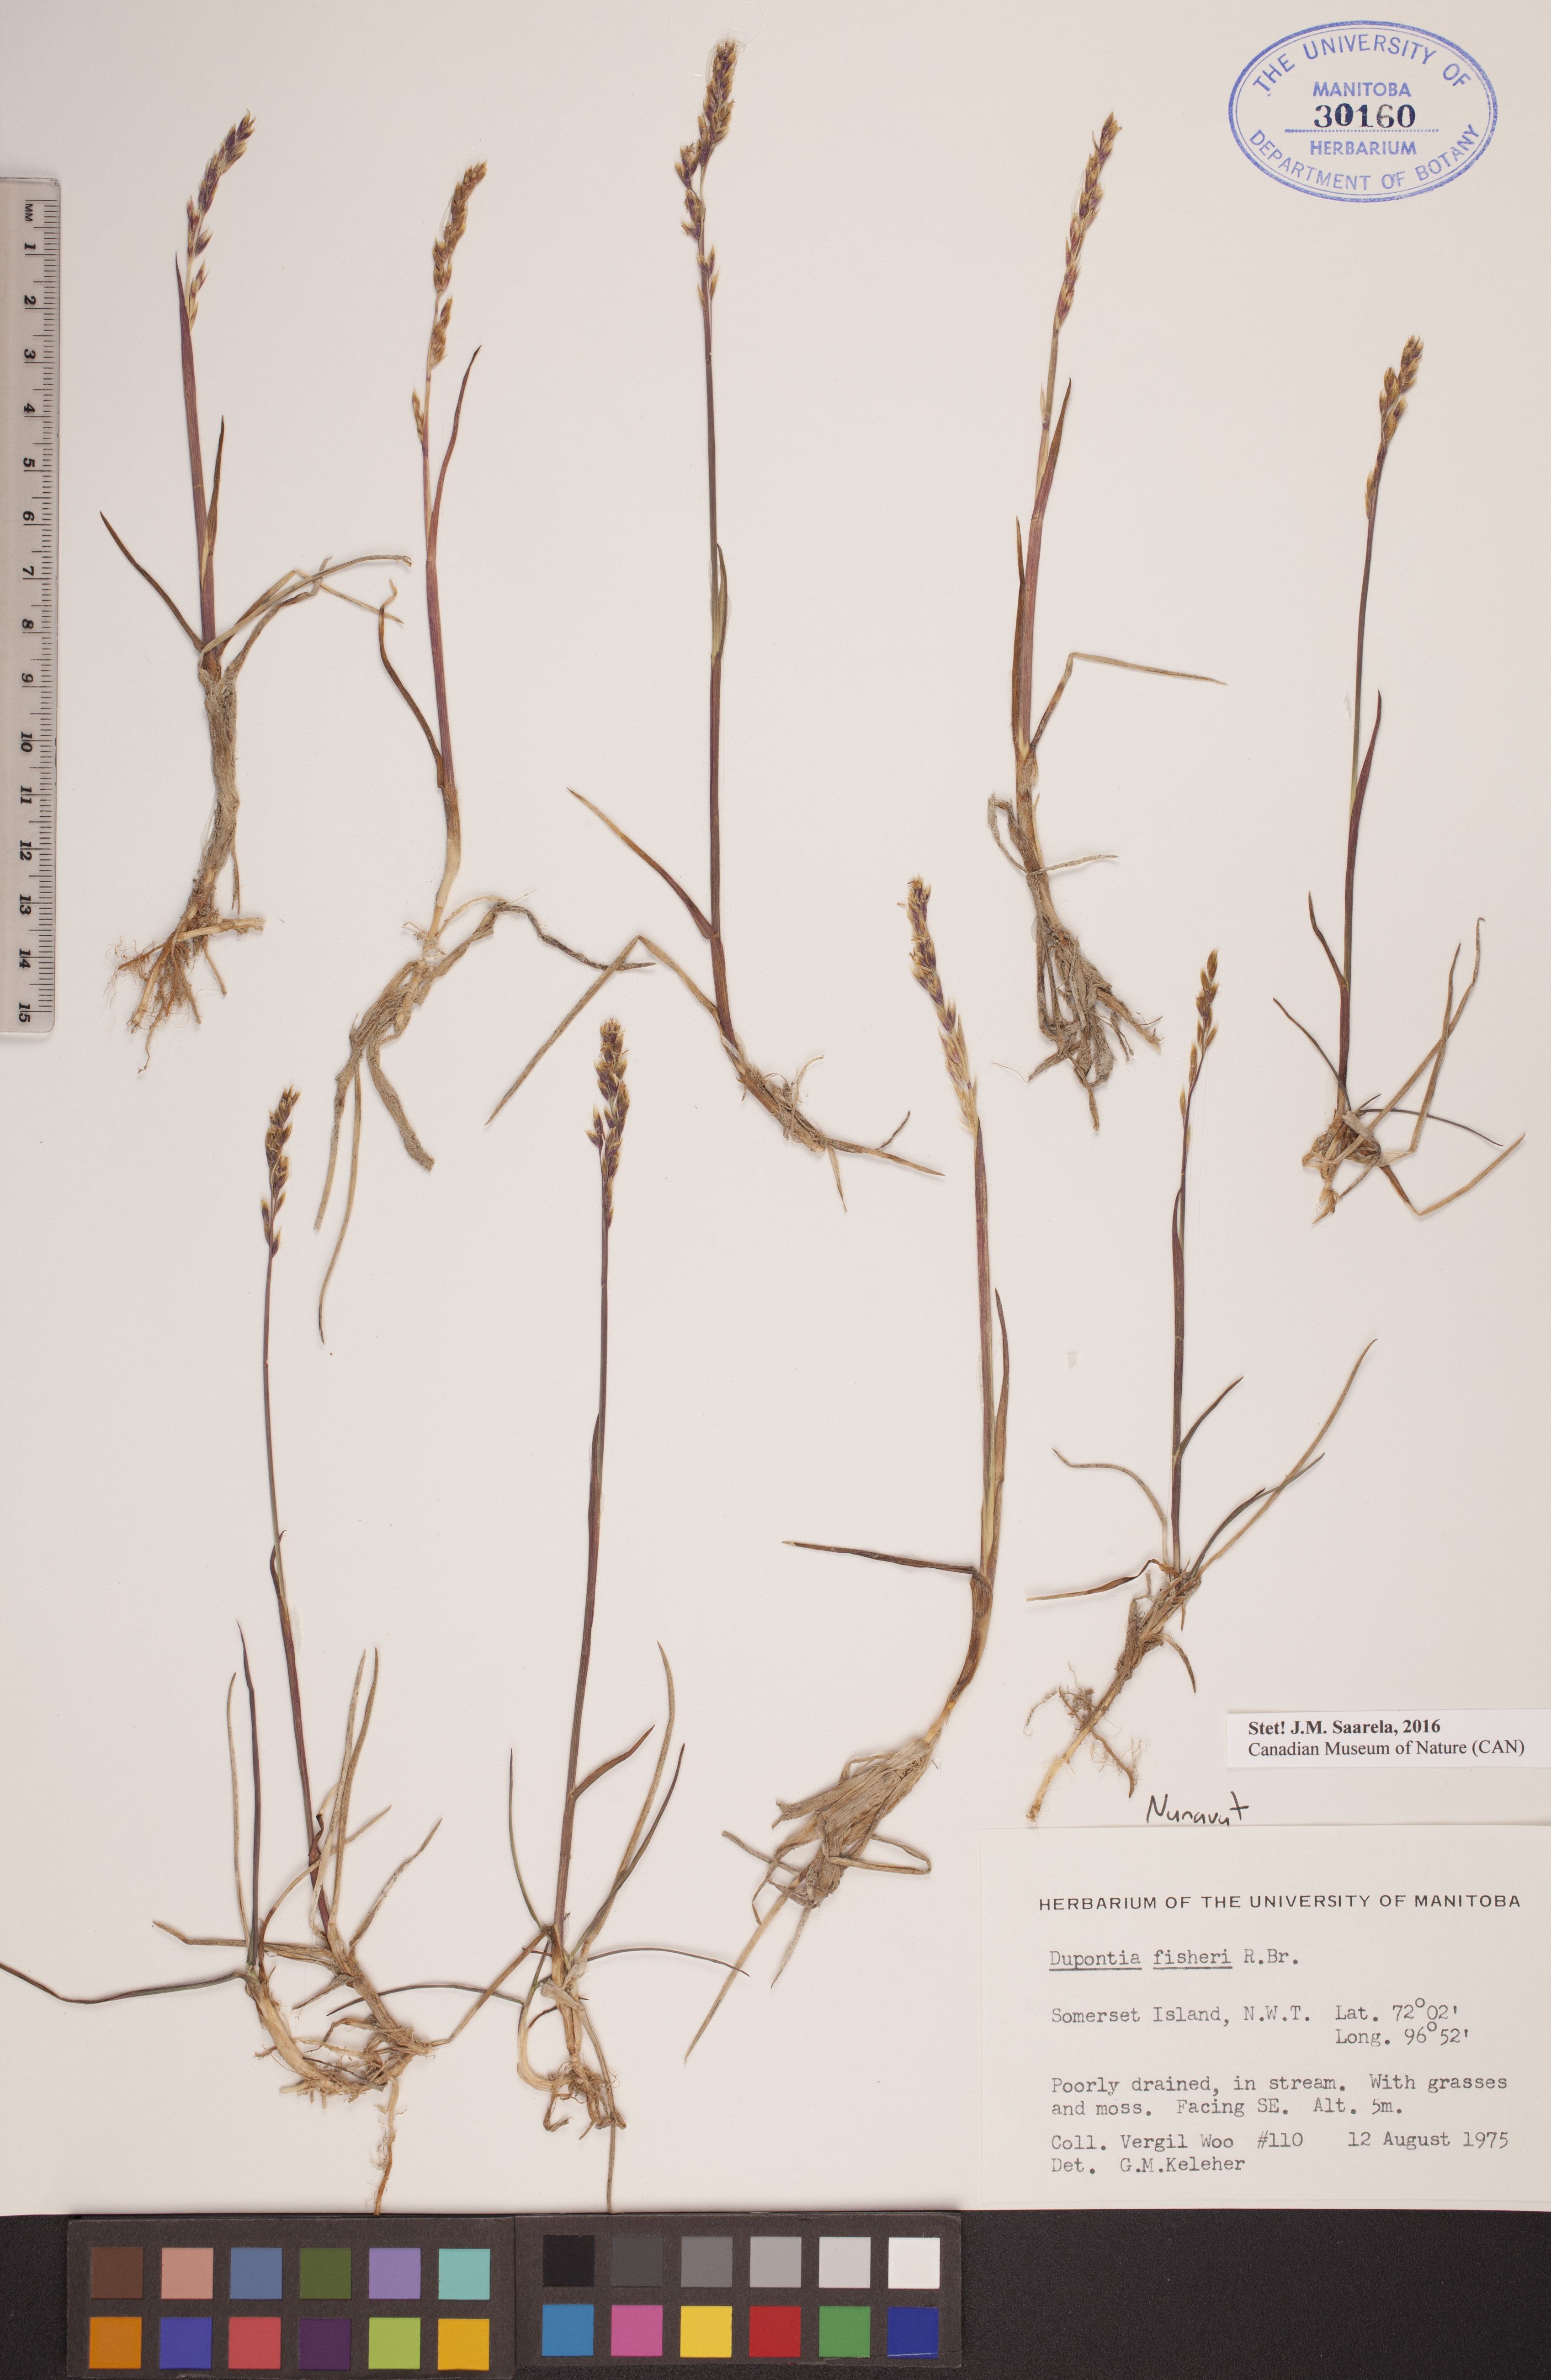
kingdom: Plantae
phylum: Tracheophyta
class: Liliopsida
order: Poales
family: Poaceae
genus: Dupontia
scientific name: Dupontia fisheri
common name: Tundra grass
